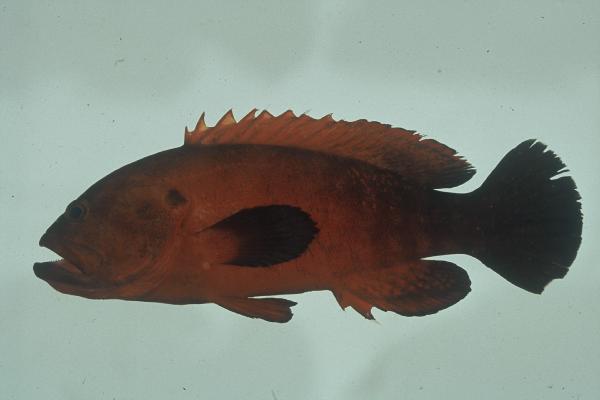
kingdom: Animalia
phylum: Chordata
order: Perciformes
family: Serranidae
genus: Cephalopholis
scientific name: Cephalopholis nigripinnis
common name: Duskyfin hind
